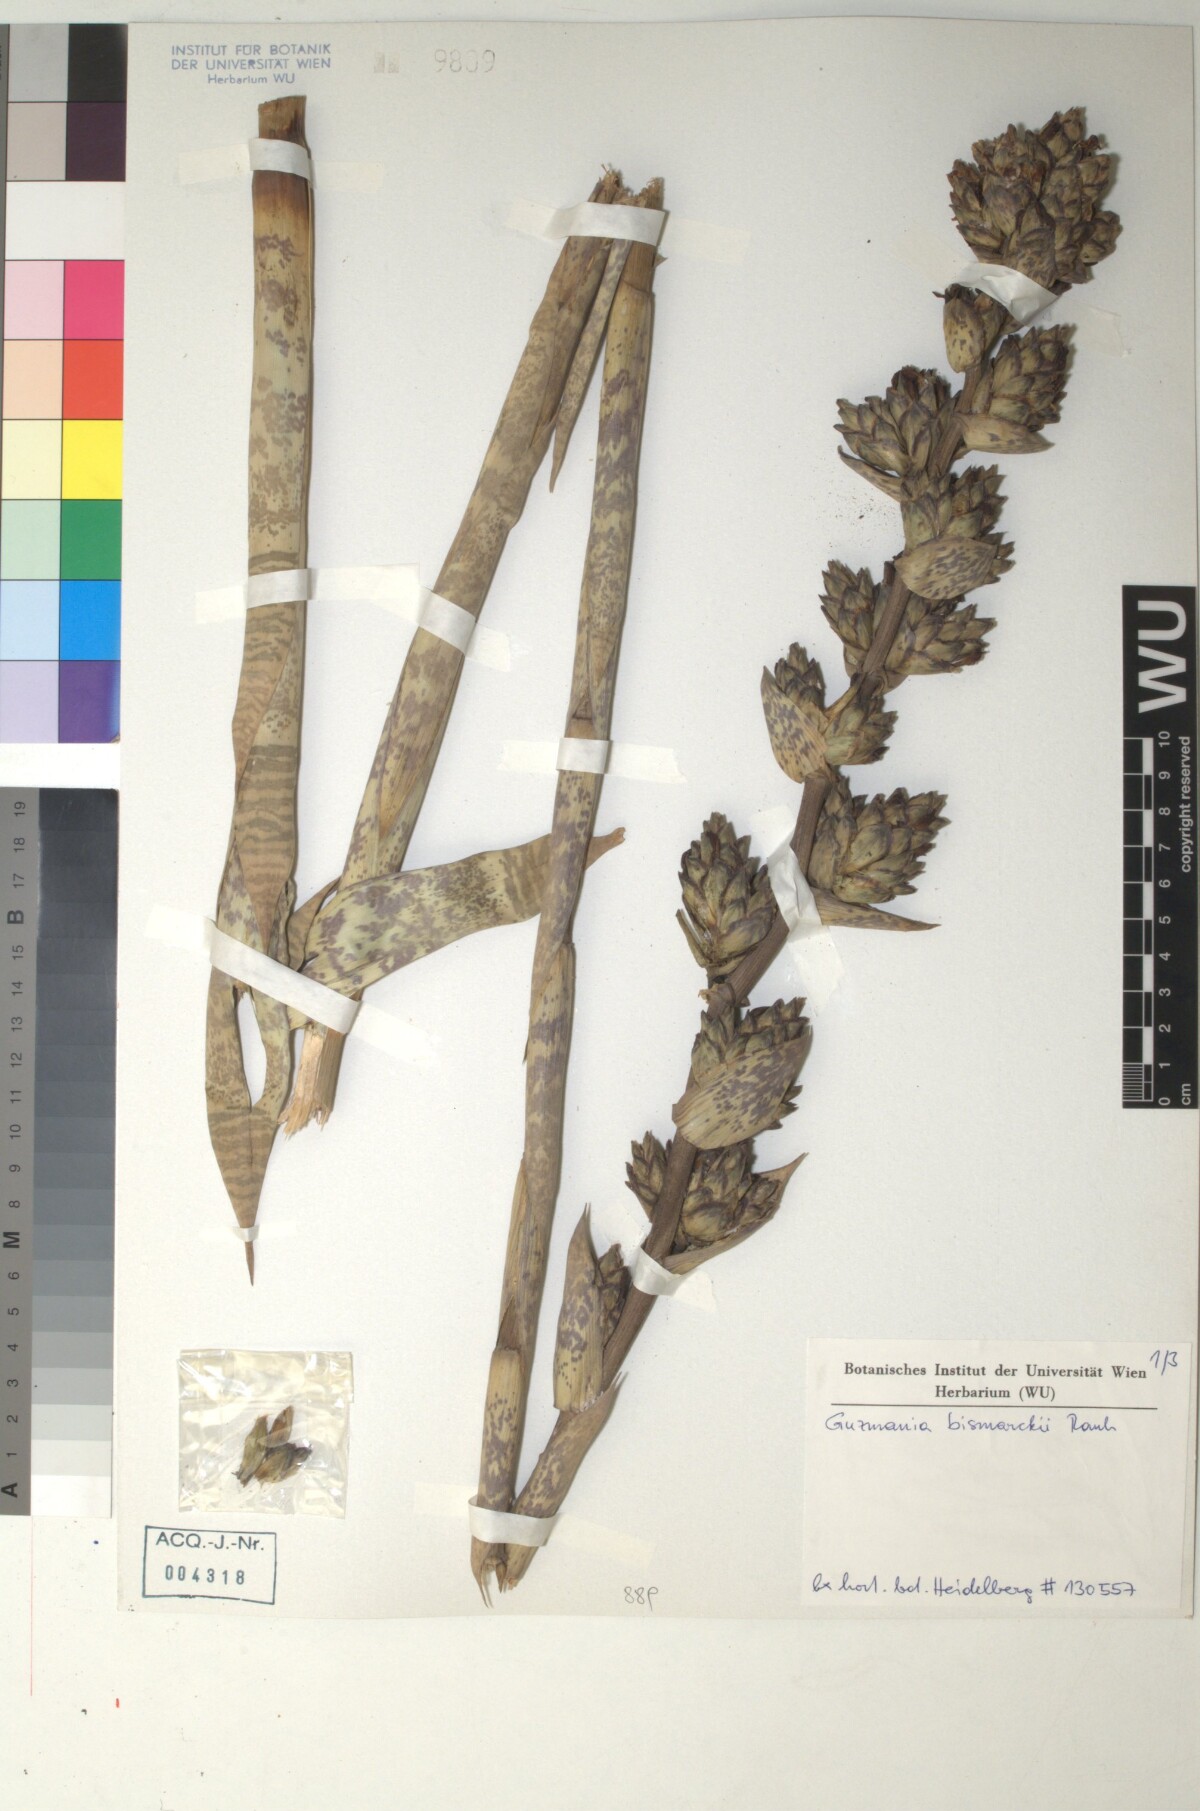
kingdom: Plantae
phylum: Tracheophyta
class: Liliopsida
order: Poales
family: Bromeliaceae
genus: Guzmania
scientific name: Guzmania lindenii
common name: Guzmania
